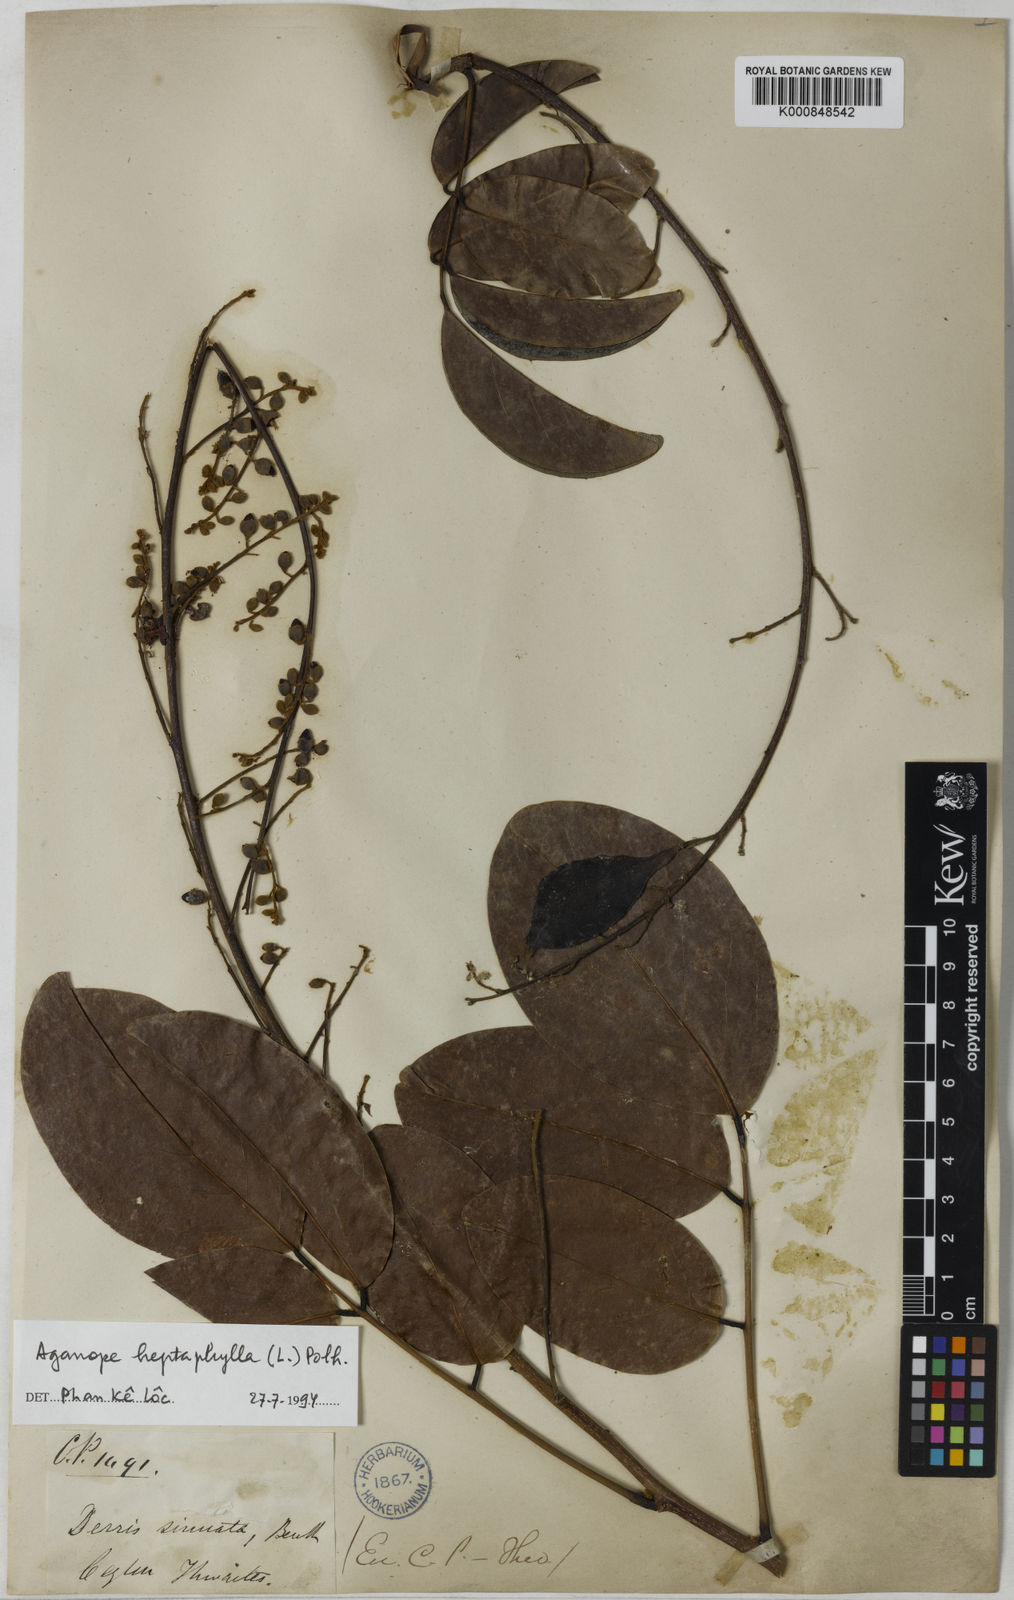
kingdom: Plantae
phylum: Tracheophyta
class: Magnoliopsida
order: Fabales
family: Fabaceae
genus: Aganope
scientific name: Aganope heptaphylla
